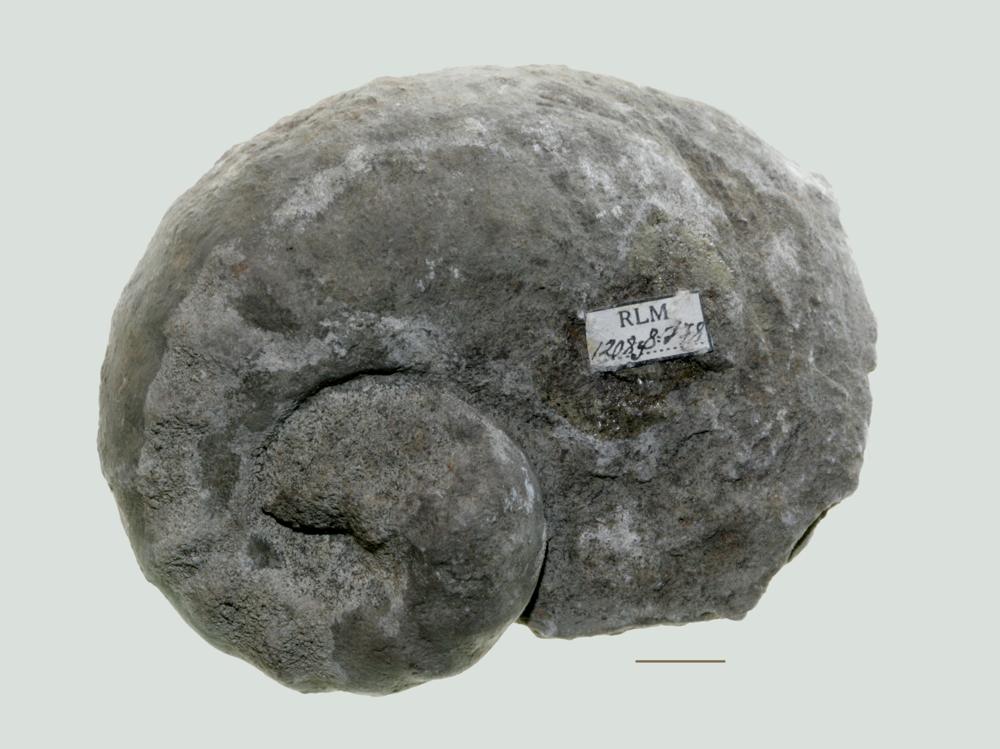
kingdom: Animalia
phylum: Mollusca
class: Gastropoda
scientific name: Gastropoda
